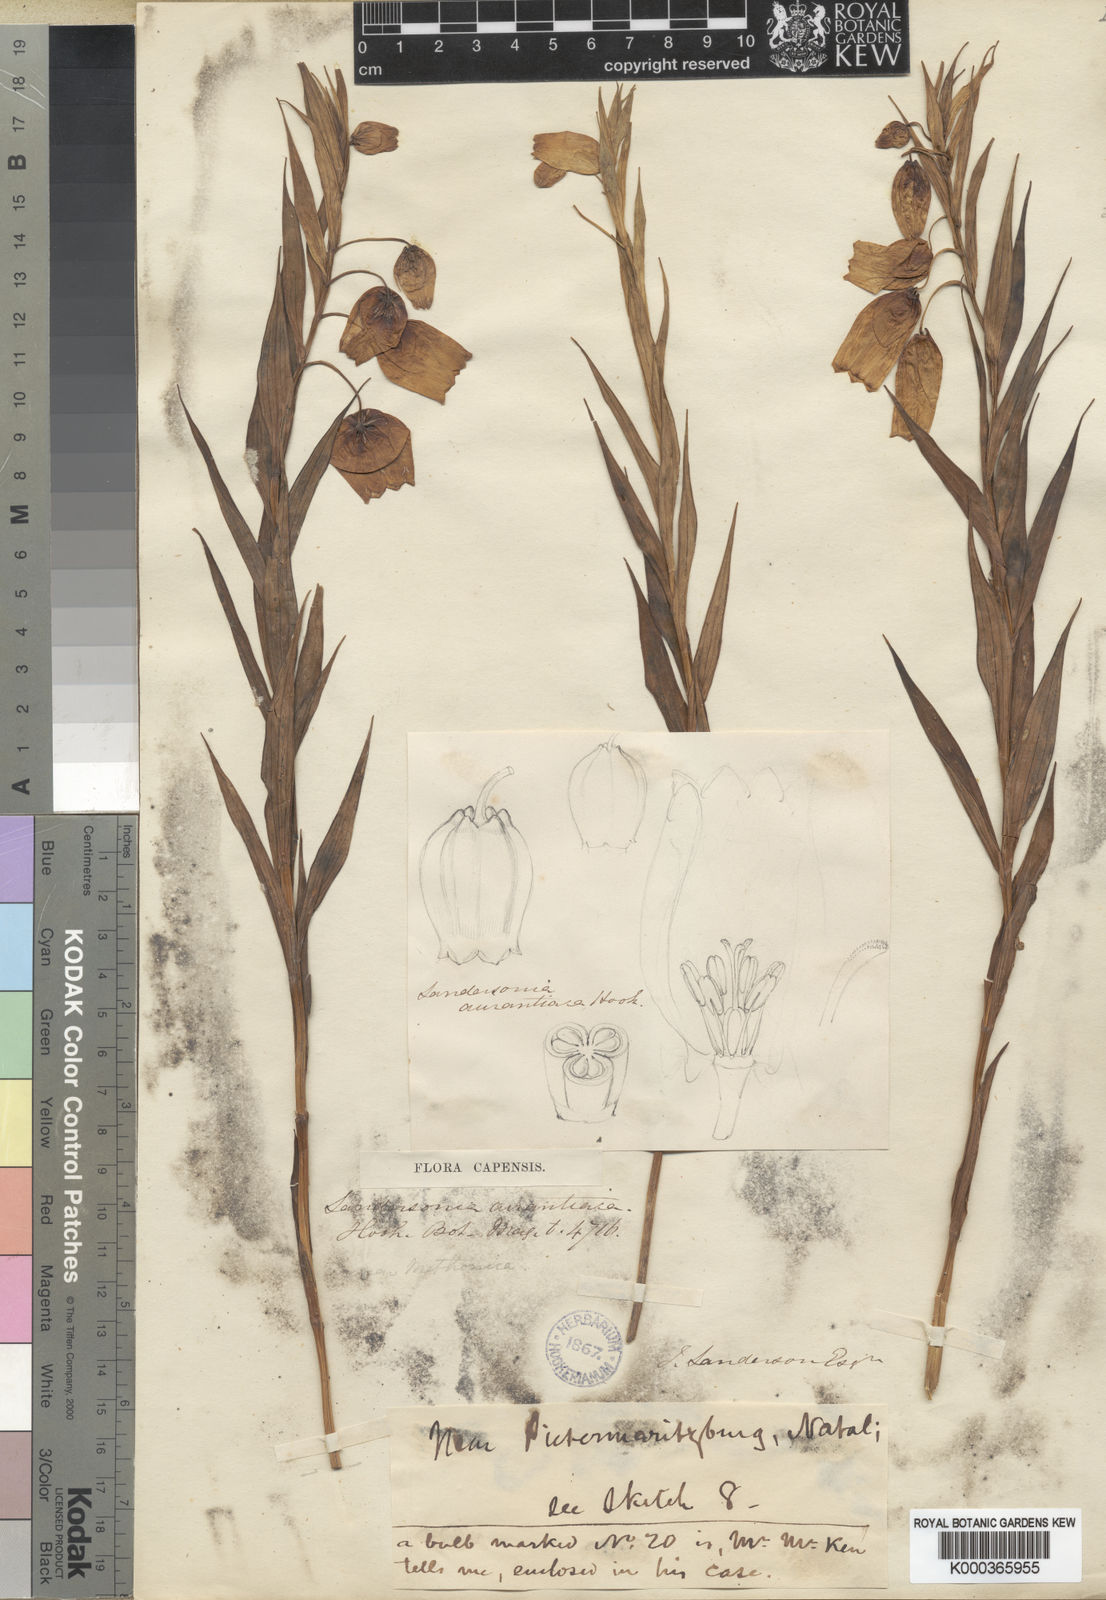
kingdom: Plantae
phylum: Tracheophyta
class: Liliopsida
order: Liliales
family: Colchicaceae
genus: Sandersonia
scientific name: Sandersonia aurantiaca
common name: Chinese-lantern-lily
